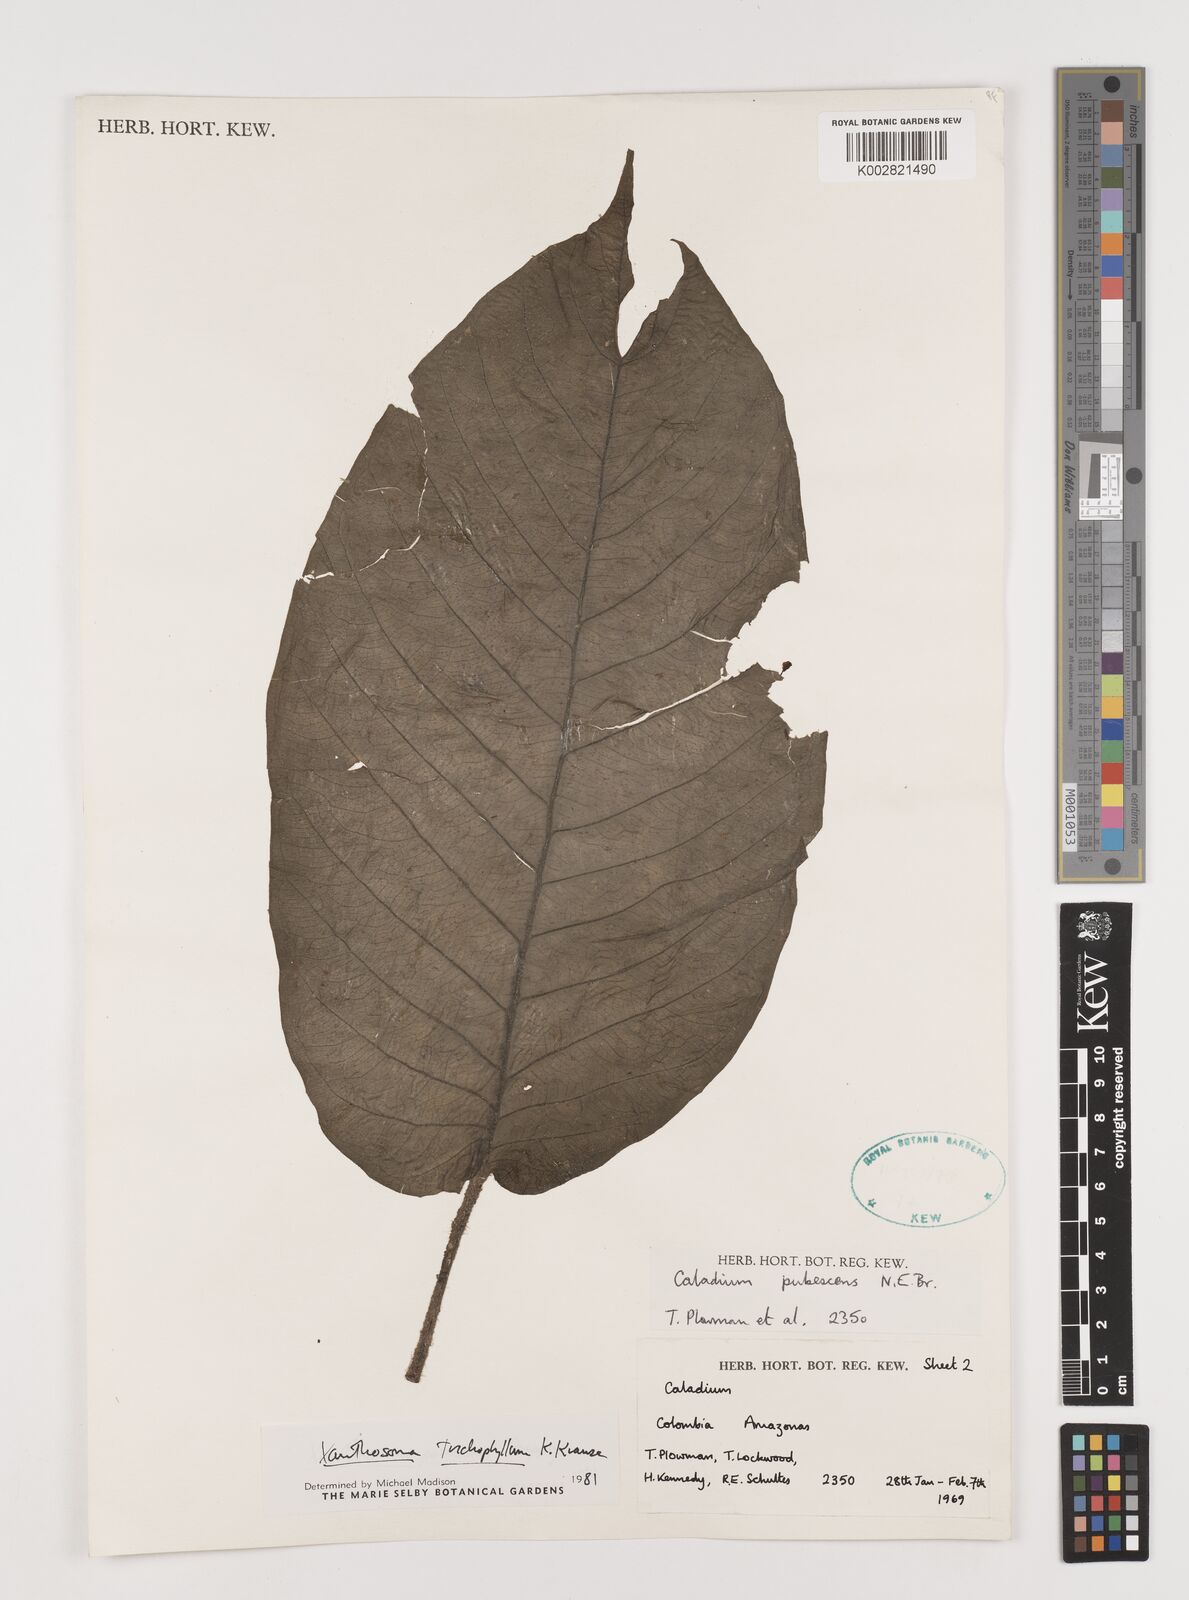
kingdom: Plantae
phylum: Tracheophyta
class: Liliopsida
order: Alismatales
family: Araceae
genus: Xanthosoma
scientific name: Xanthosoma trichophyllum
